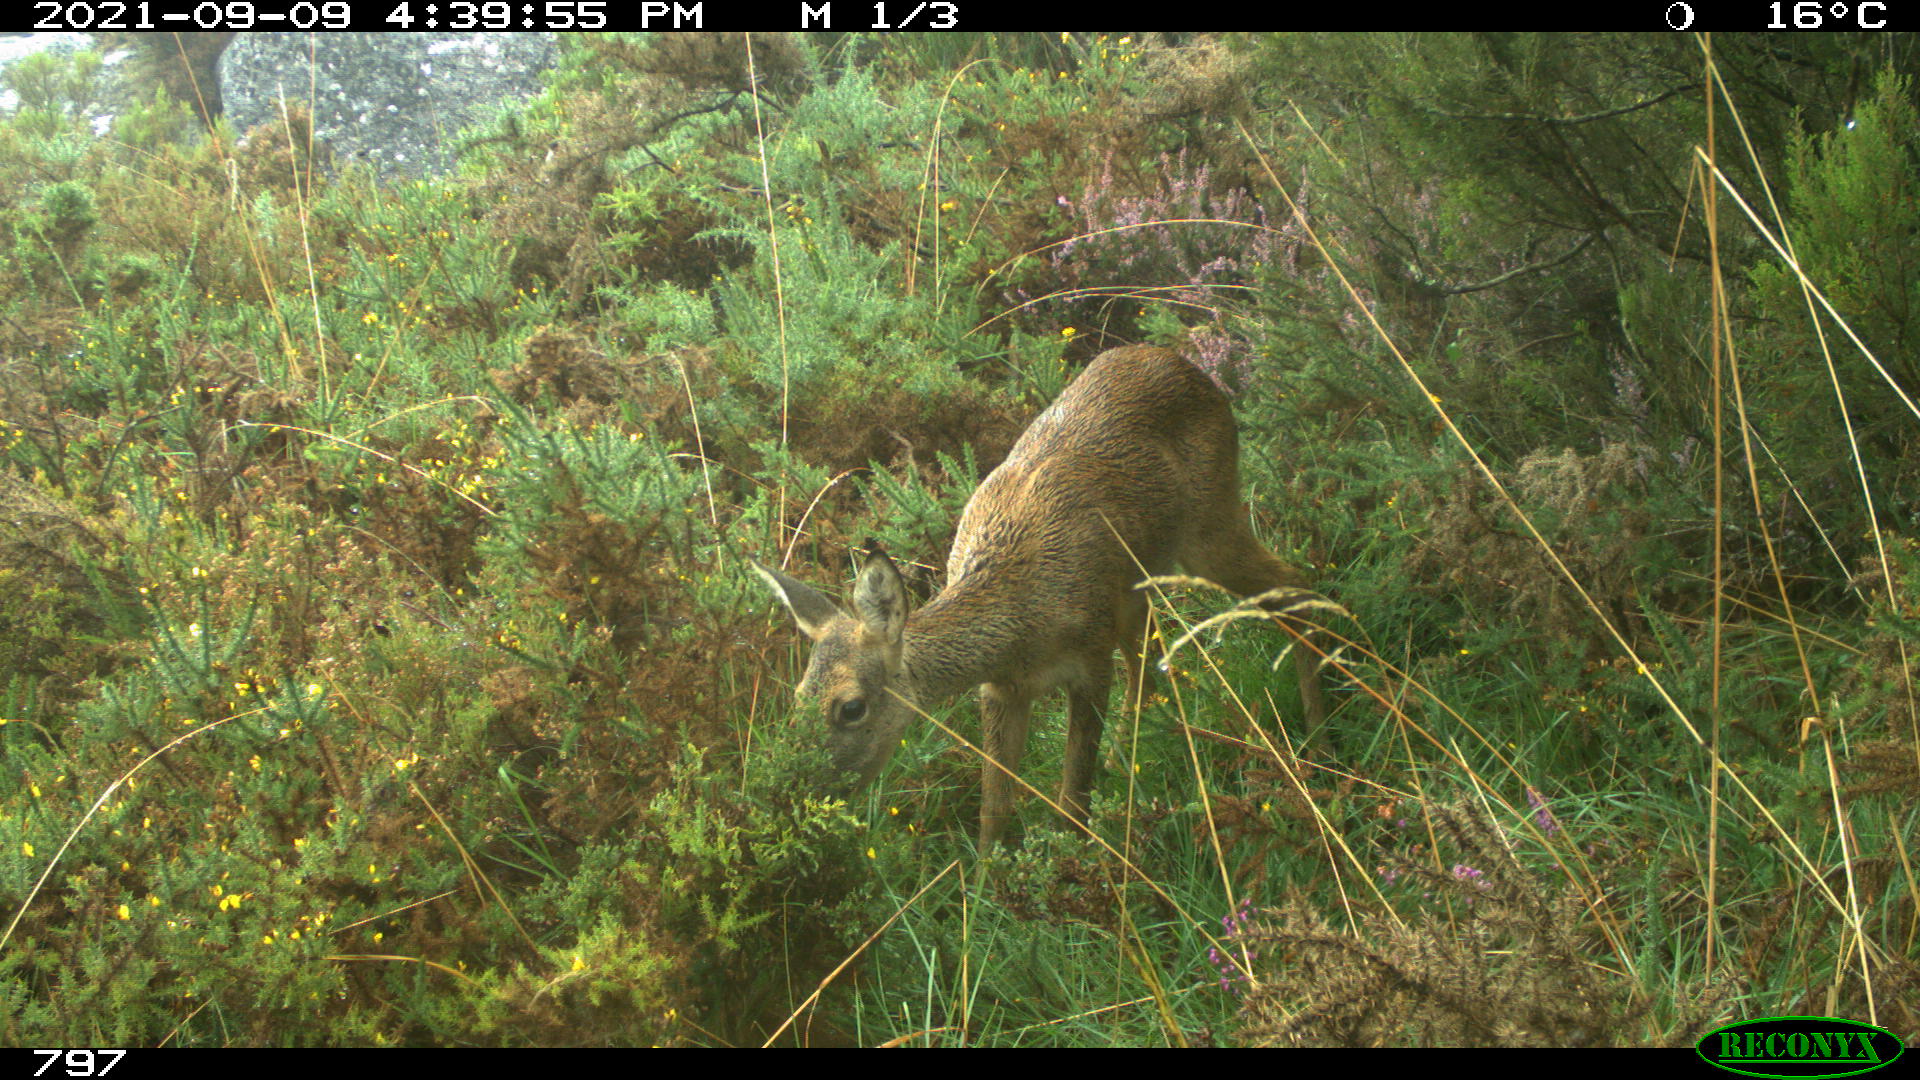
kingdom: Animalia
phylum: Chordata
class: Mammalia
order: Artiodactyla
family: Cervidae
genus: Capreolus
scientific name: Capreolus capreolus
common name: Western roe deer
